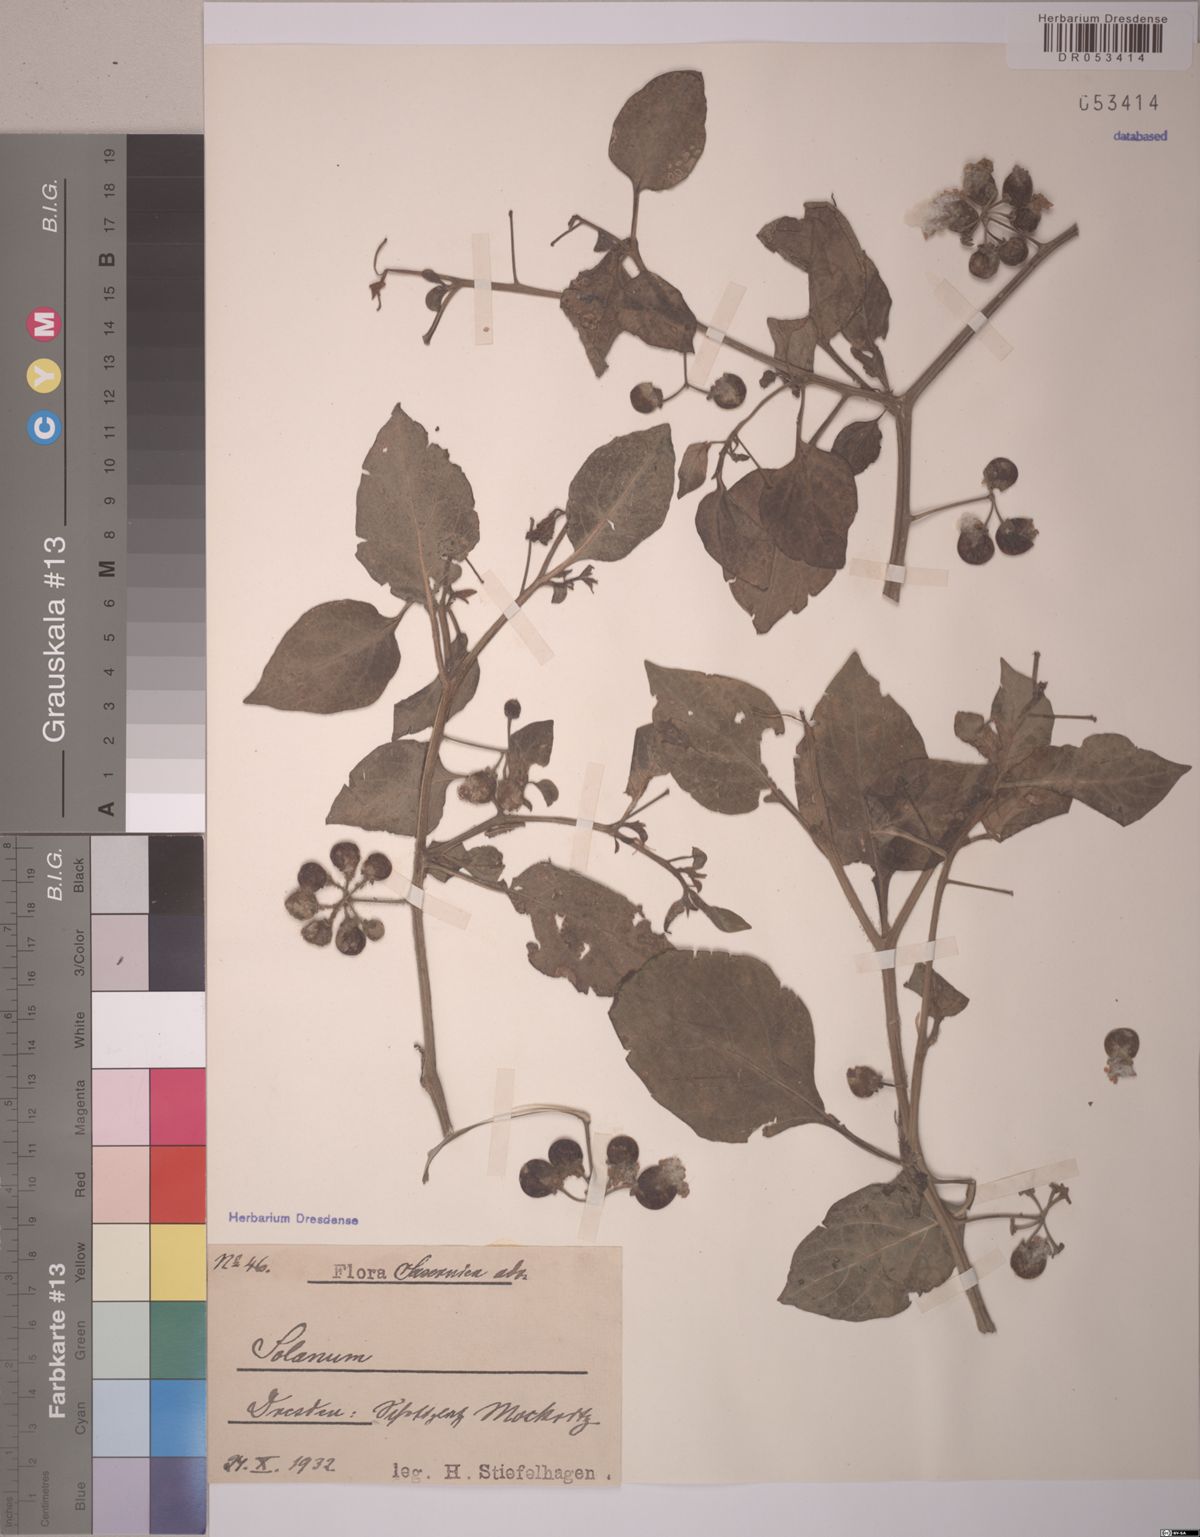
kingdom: Plantae
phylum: Tracheophyta
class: Magnoliopsida
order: Solanales
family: Solanaceae
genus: Solanum
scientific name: Solanum
